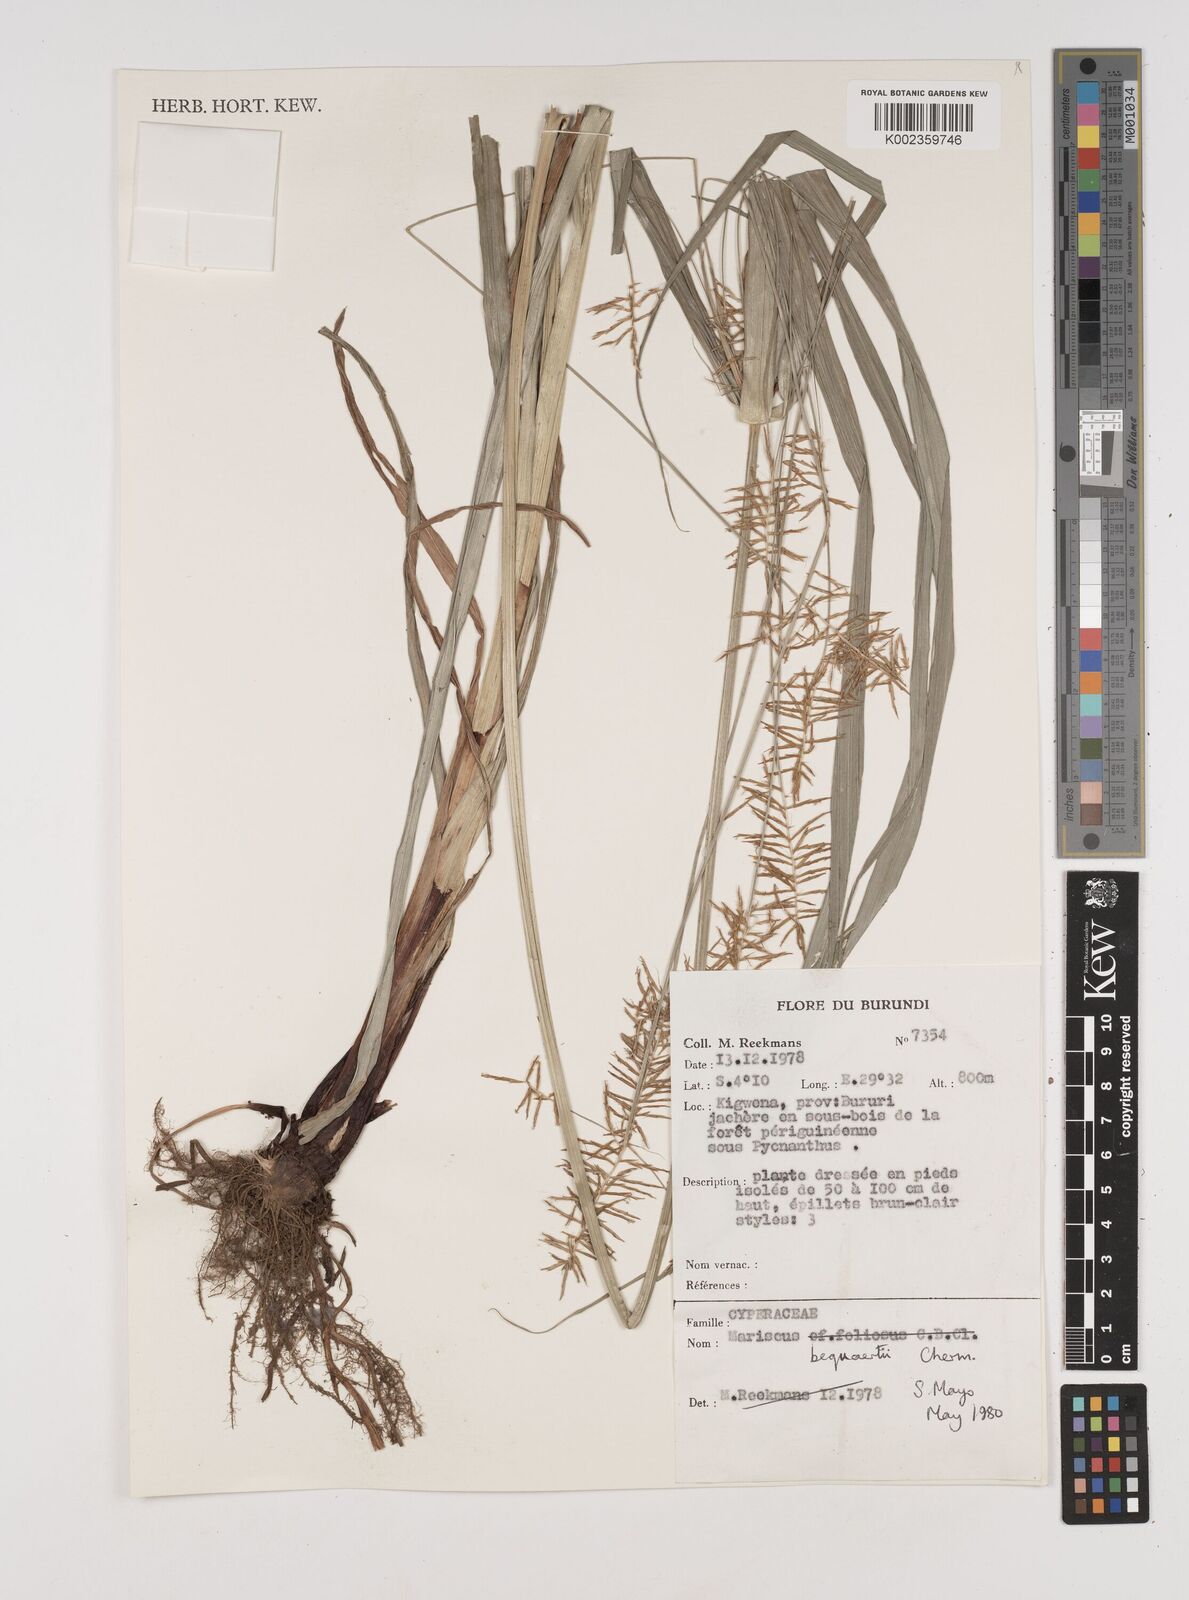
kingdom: Plantae
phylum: Tracheophyta
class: Liliopsida
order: Poales
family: Cyperaceae
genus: Cyperus
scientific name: Cyperus ferrugineoviridis
